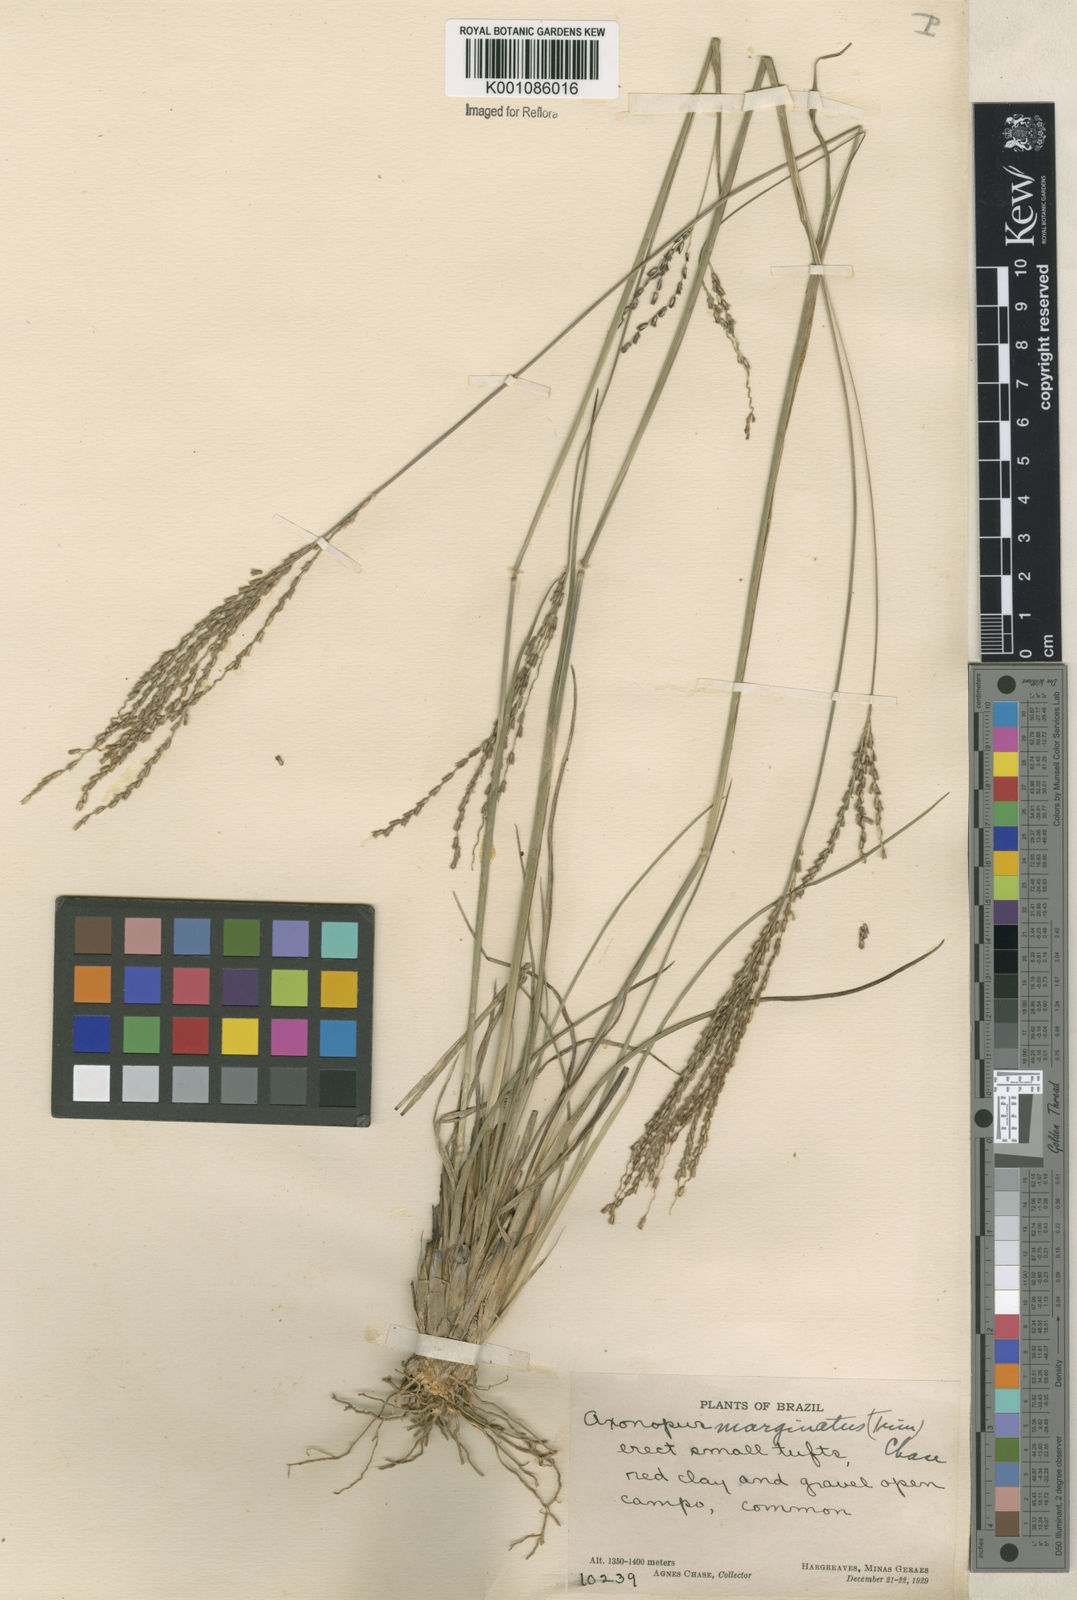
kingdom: Plantae
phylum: Tracheophyta
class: Liliopsida
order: Poales
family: Poaceae
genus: Axonopus
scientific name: Axonopus
